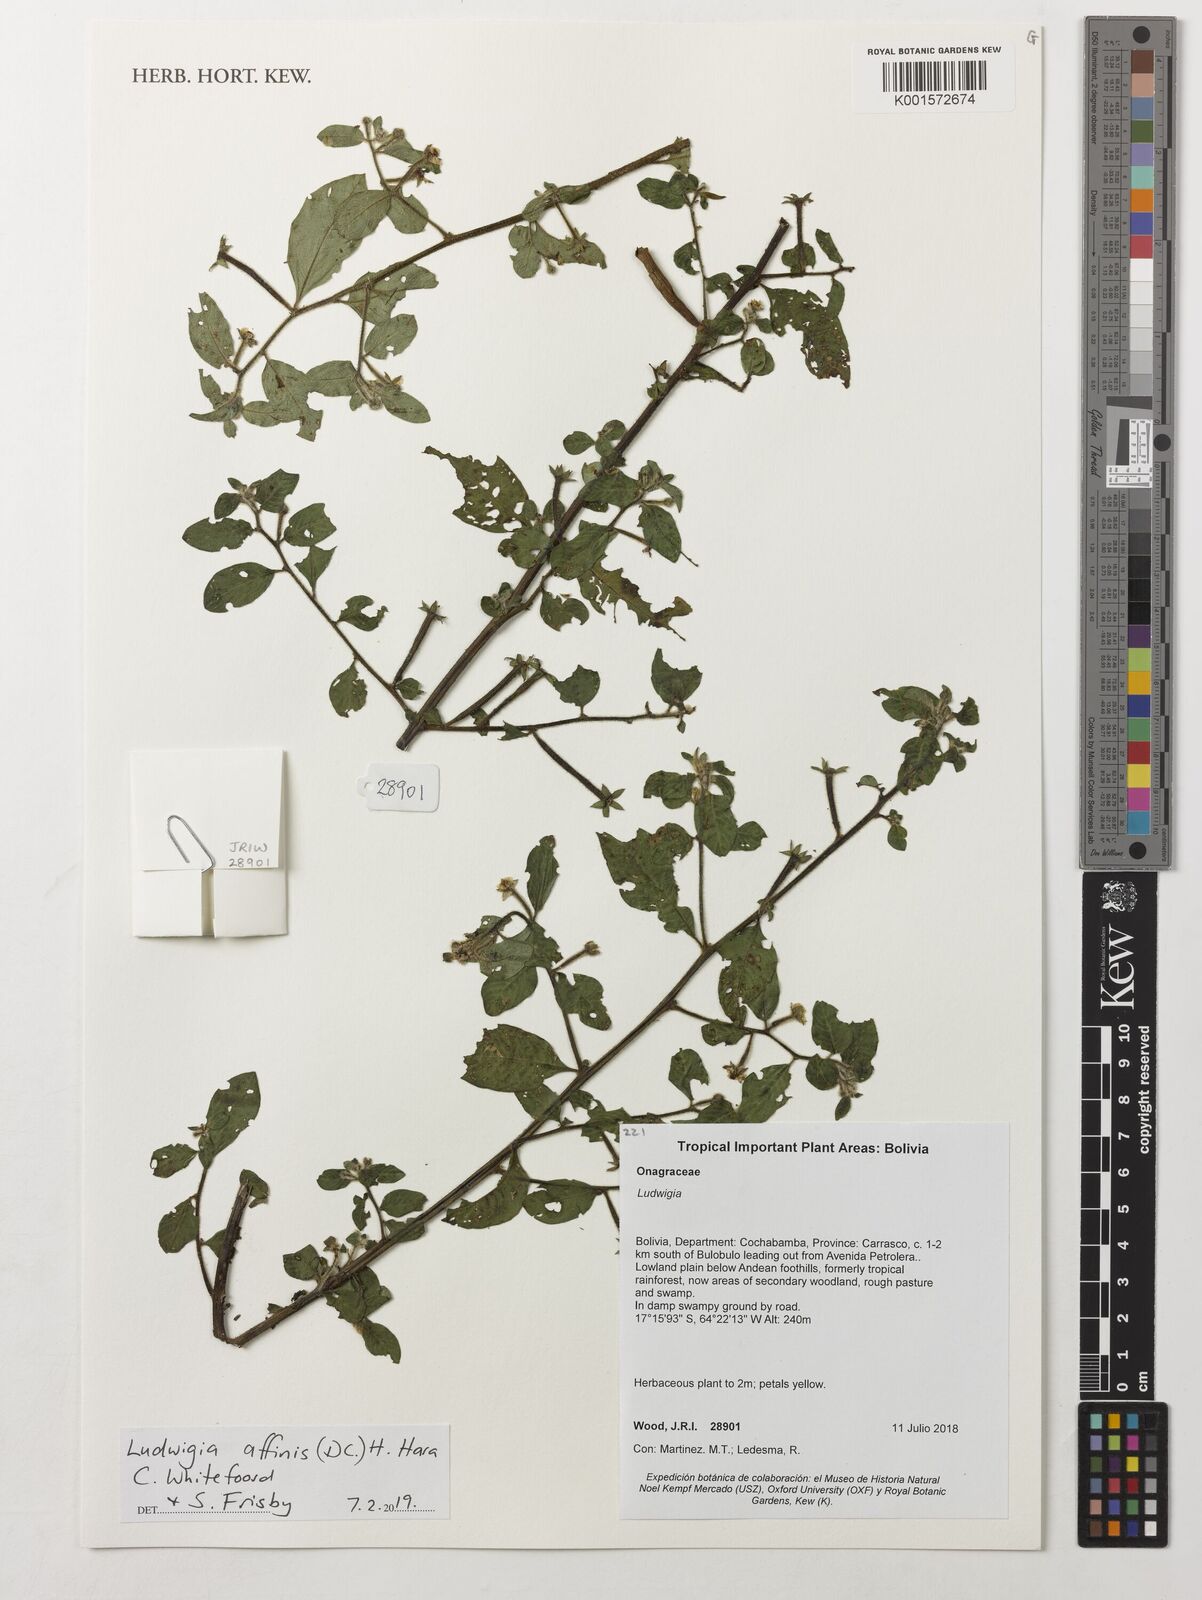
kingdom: Plantae
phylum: Tracheophyta
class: Magnoliopsida
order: Myrtales
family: Onagraceae
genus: Ludwigia
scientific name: Ludwigia affinis
